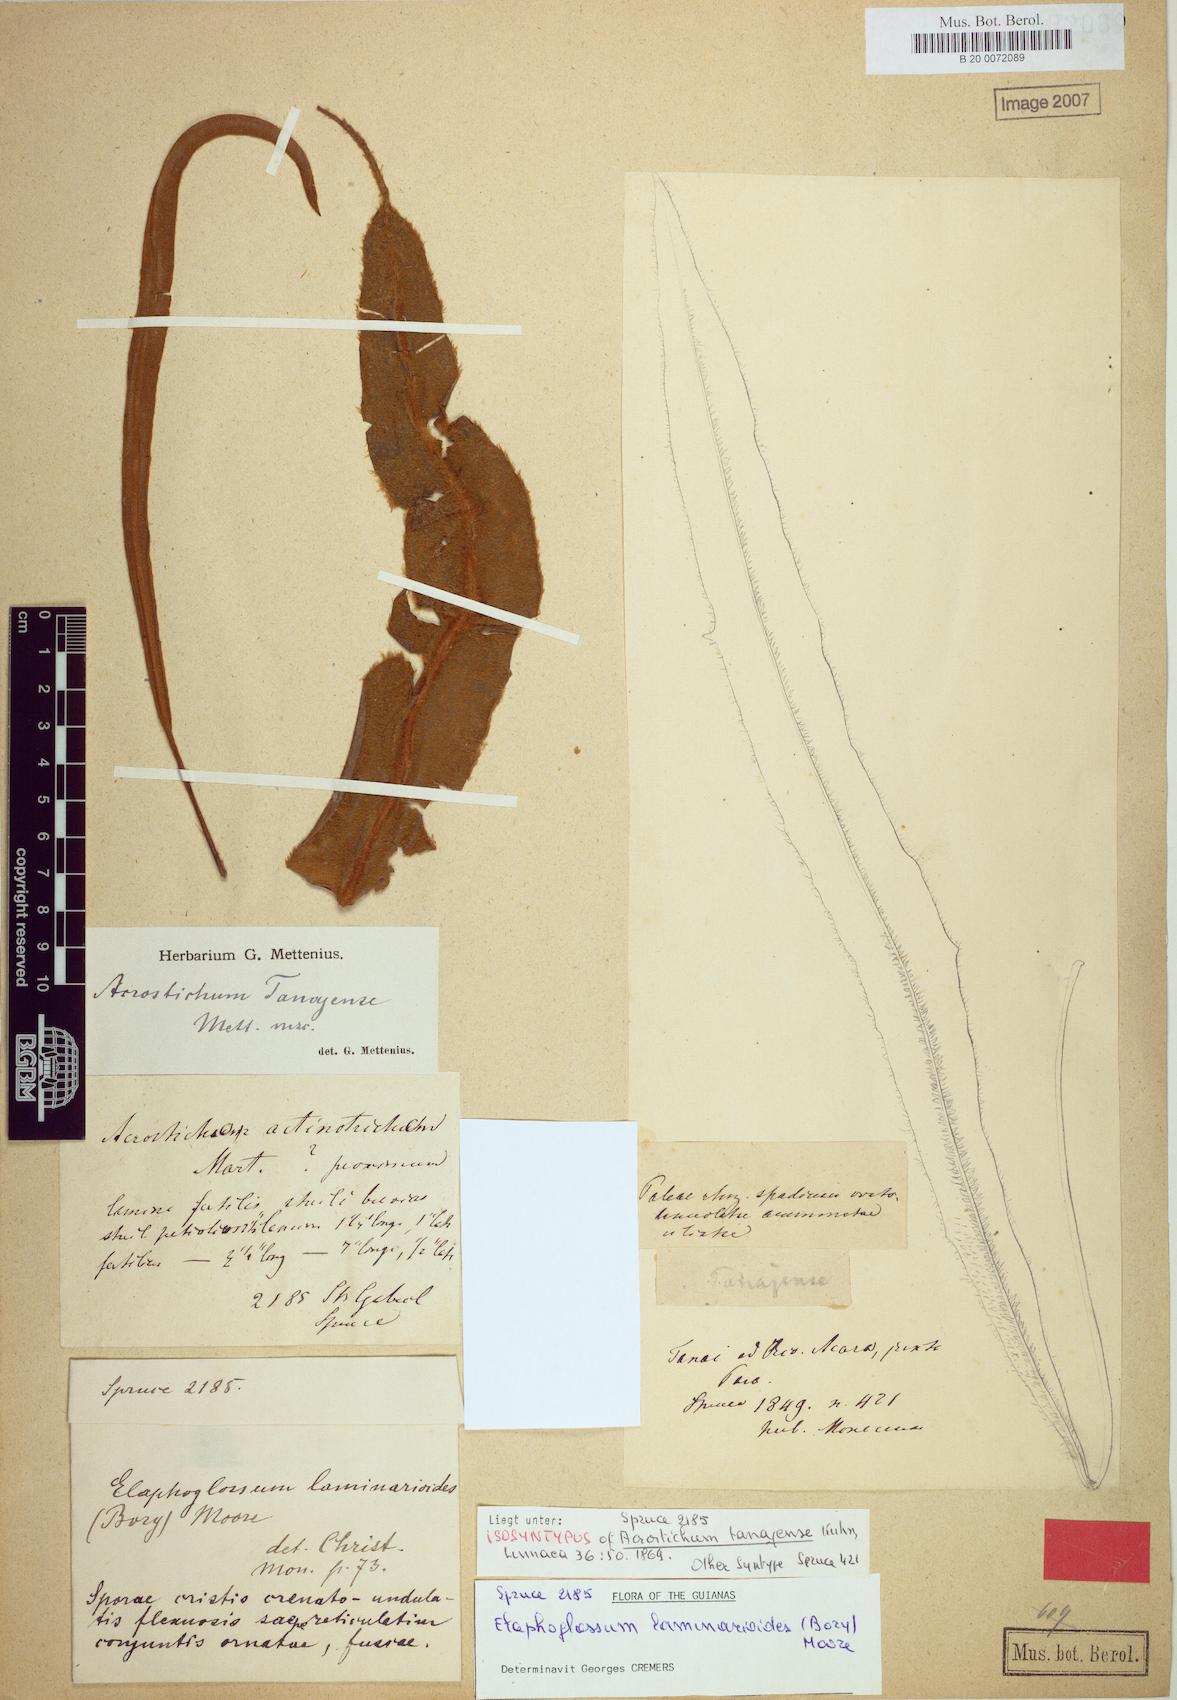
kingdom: Plantae
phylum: Tracheophyta
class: Polypodiopsida
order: Polypodiales
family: Dryopteridaceae
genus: Elaphoglossum
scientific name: Elaphoglossum laminarioides
